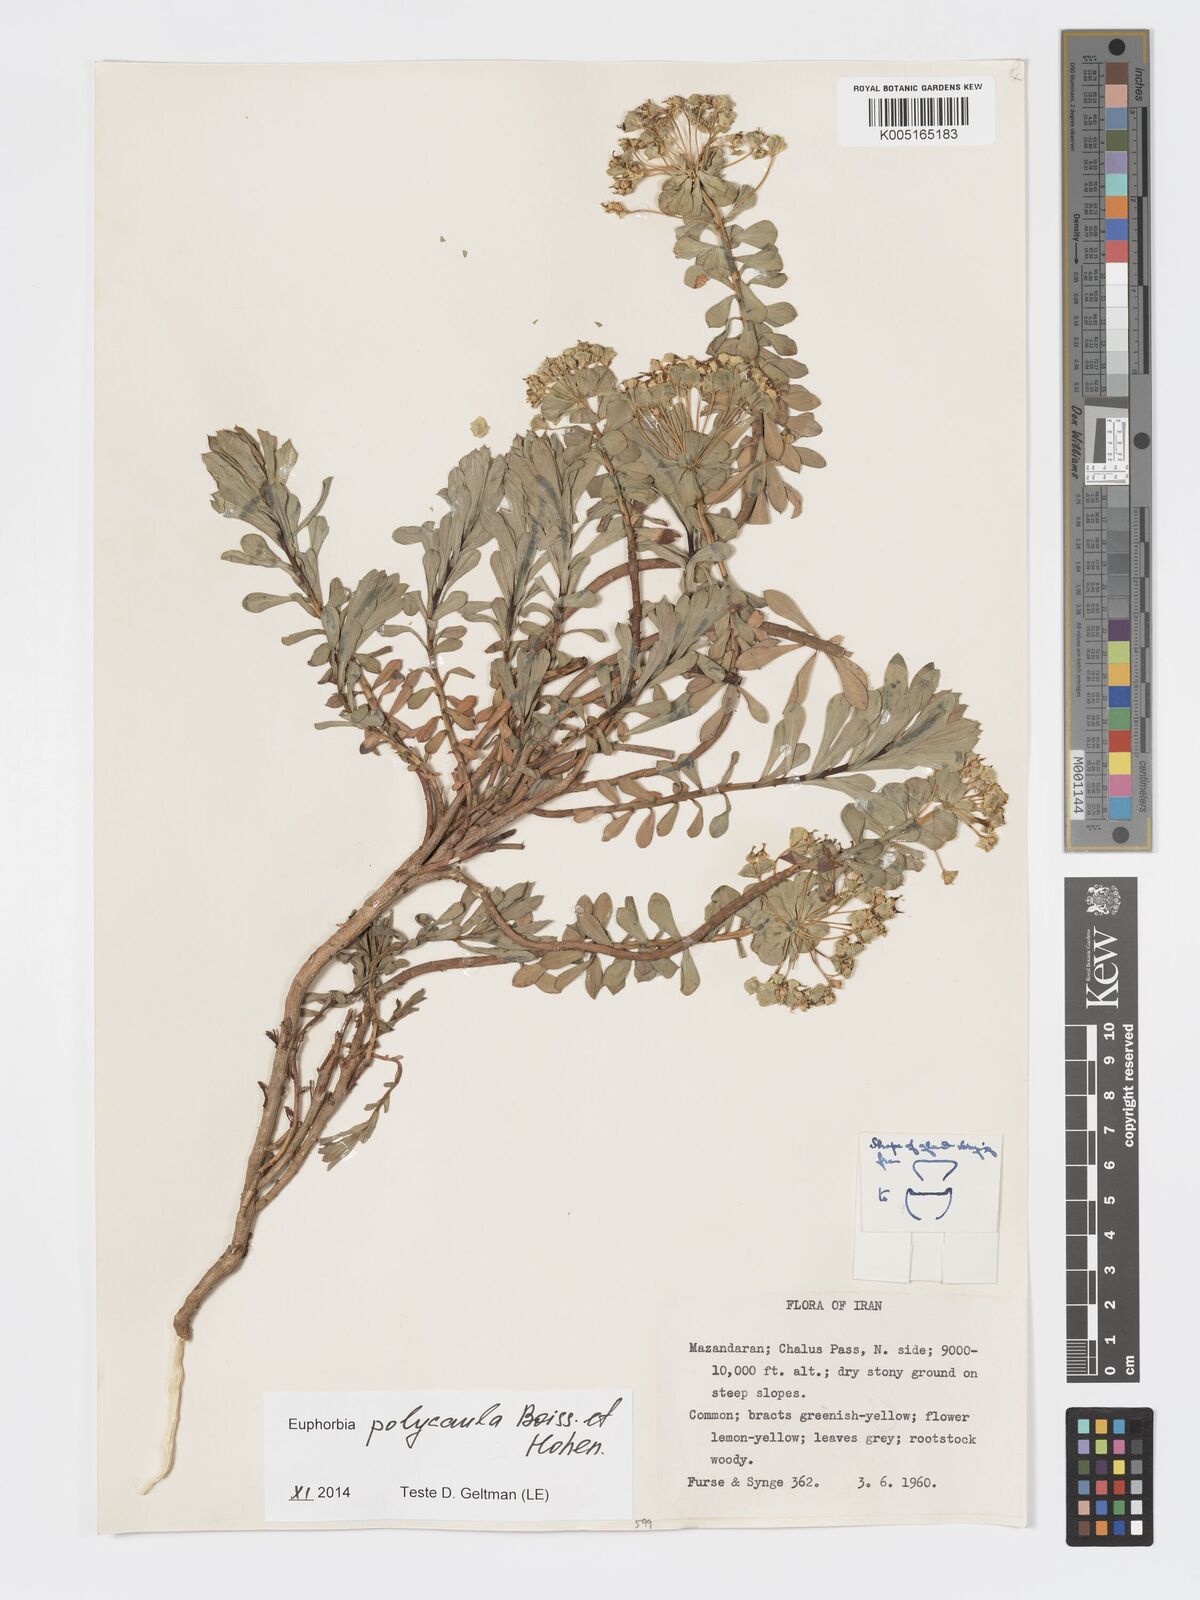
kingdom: Plantae
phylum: Tracheophyta
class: Magnoliopsida
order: Malpighiales
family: Euphorbiaceae
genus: Euphorbia
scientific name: Euphorbia polycaulis
